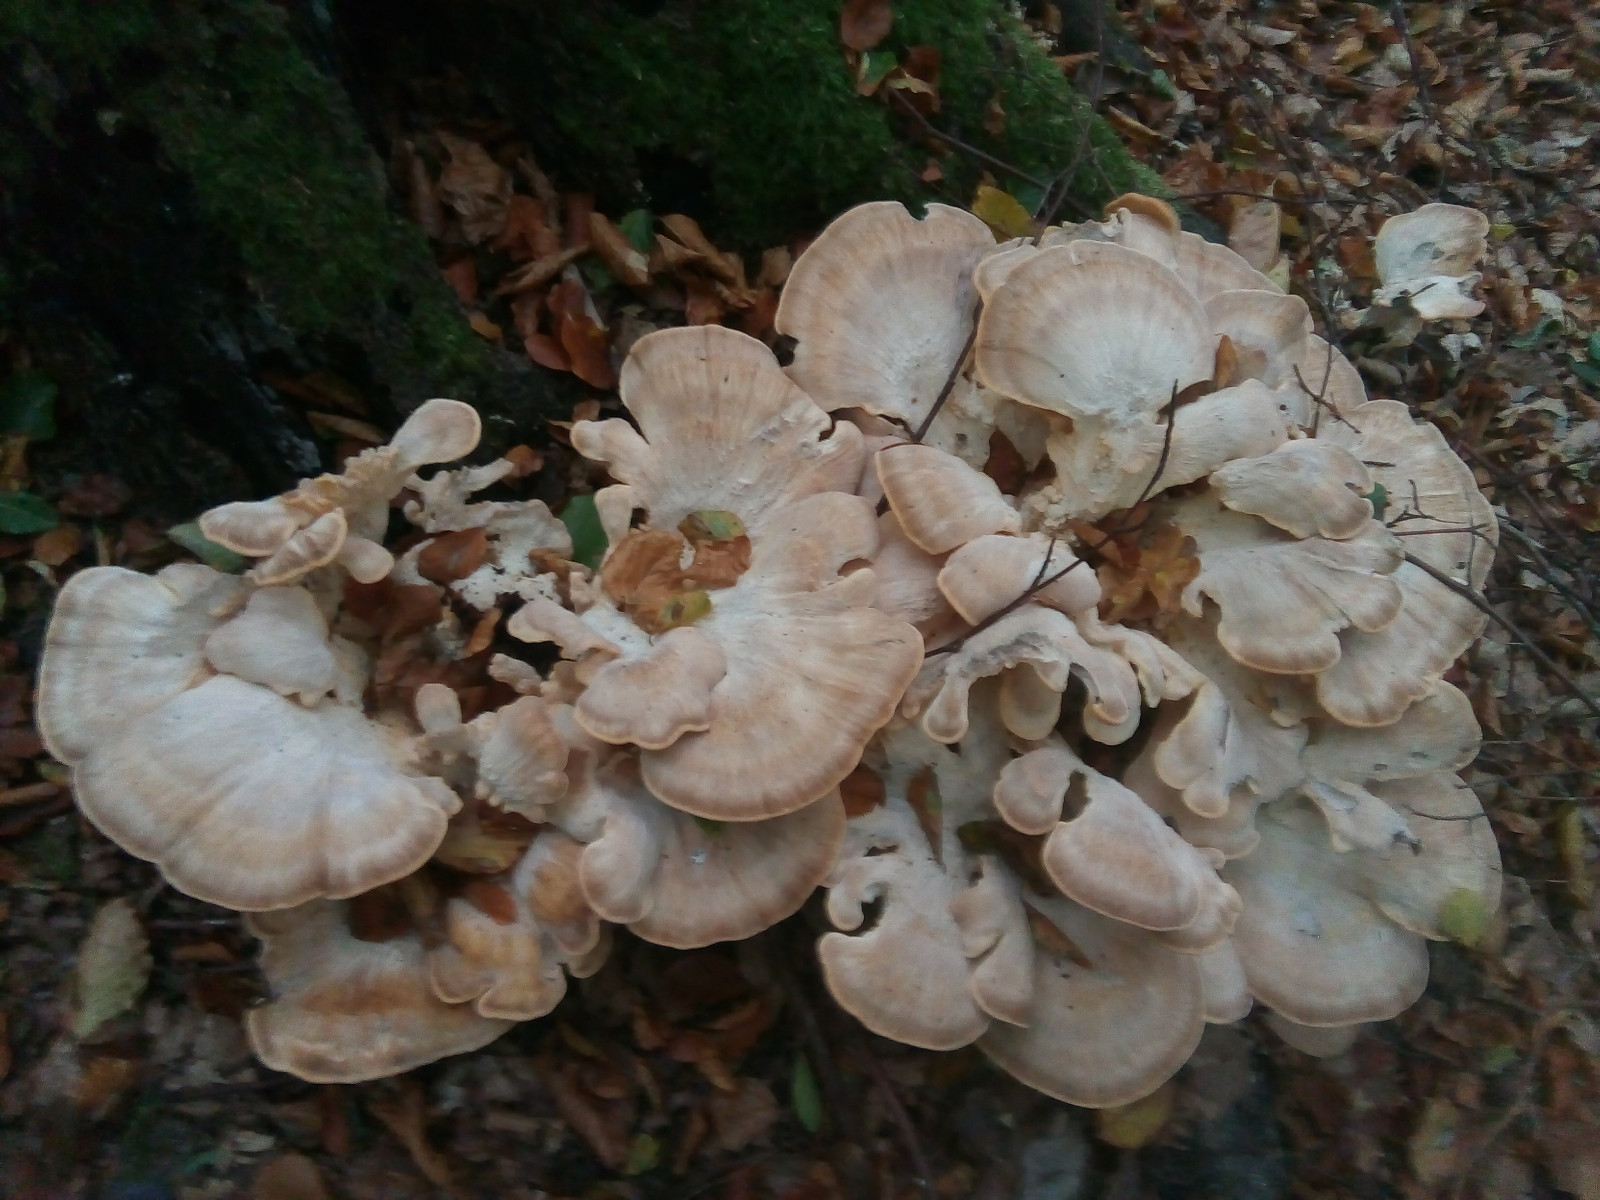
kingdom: Fungi
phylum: Basidiomycota
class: Agaricomycetes
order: Polyporales
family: Meripilaceae
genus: Meripilus
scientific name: Meripilus giganteus
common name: kæmpeporesvamp
